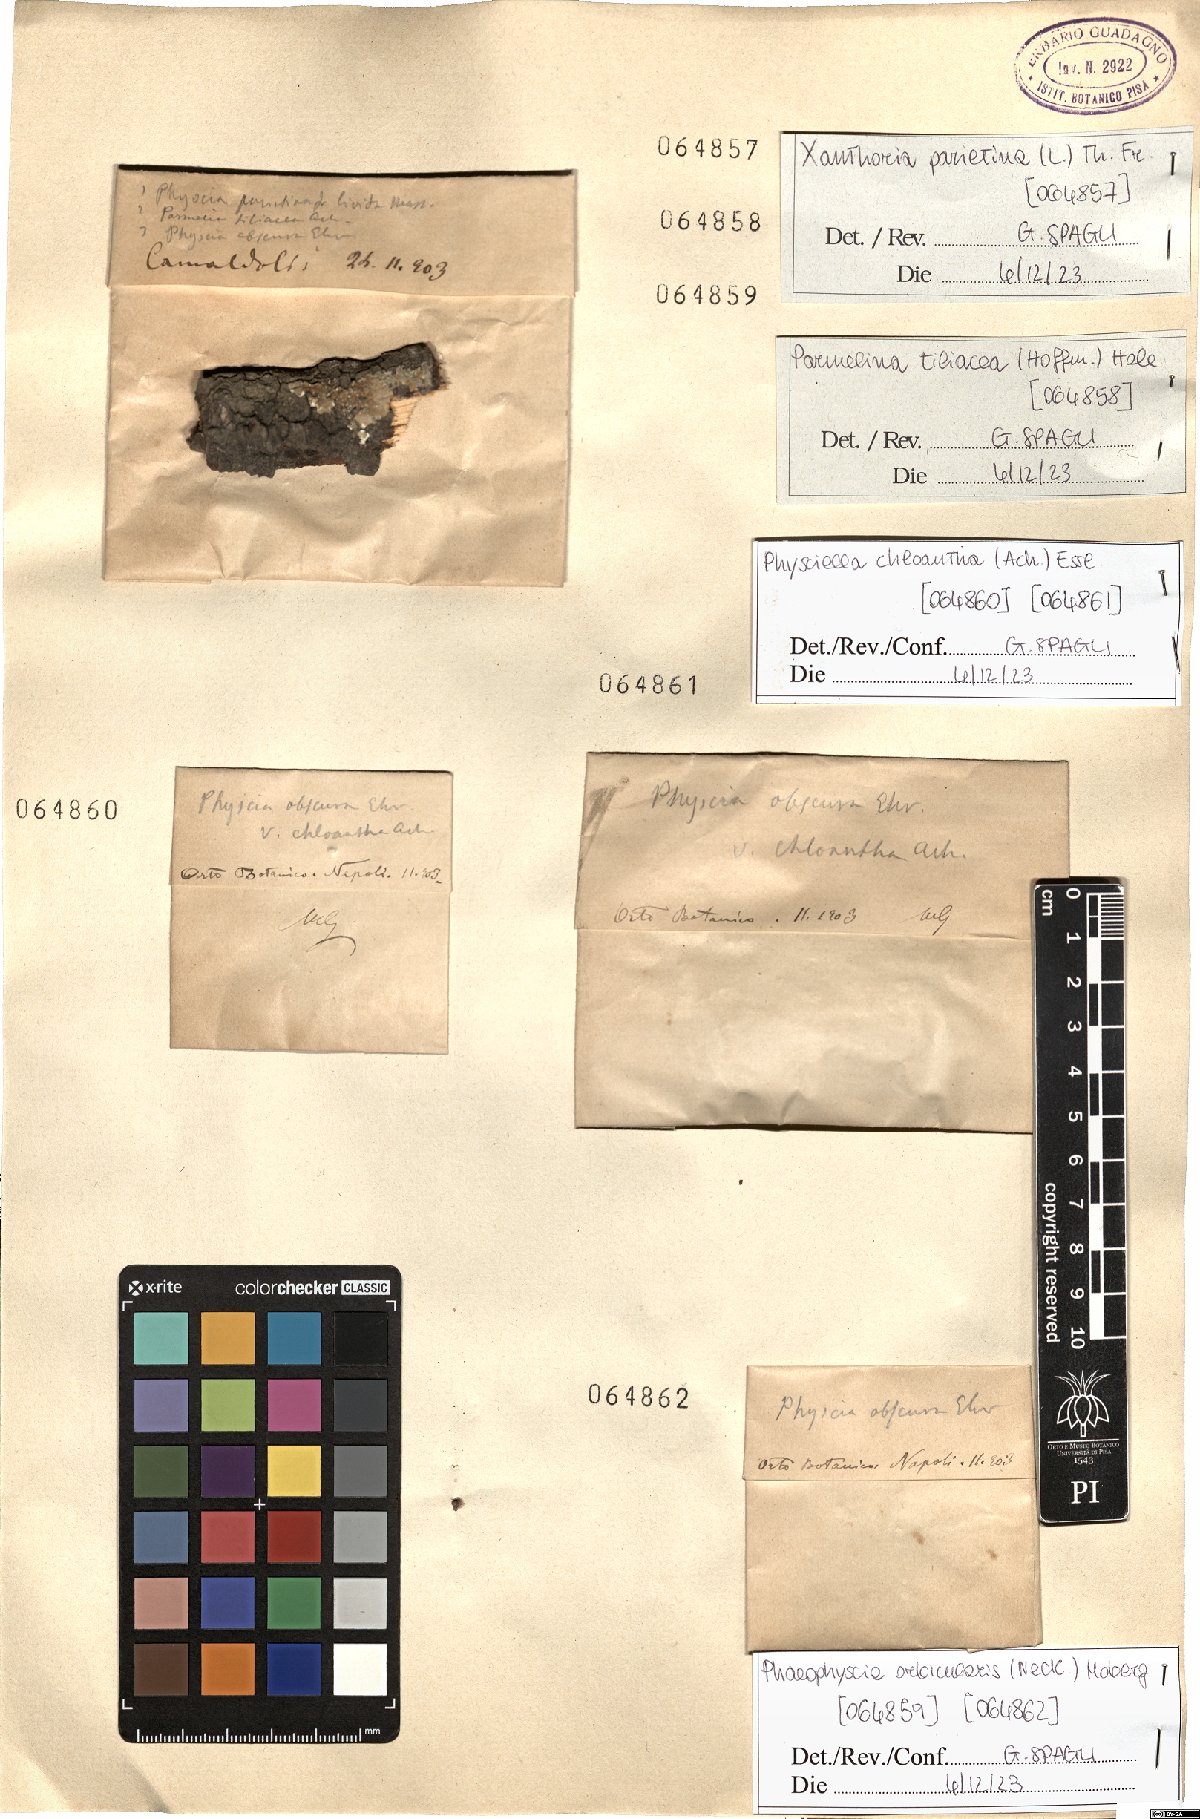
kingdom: Fungi
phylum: Ascomycota
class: Lecanoromycetes
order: Teloschistales
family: Teloschistaceae
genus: Xanthoria
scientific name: Xanthoria parietina
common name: Common orange lichen
